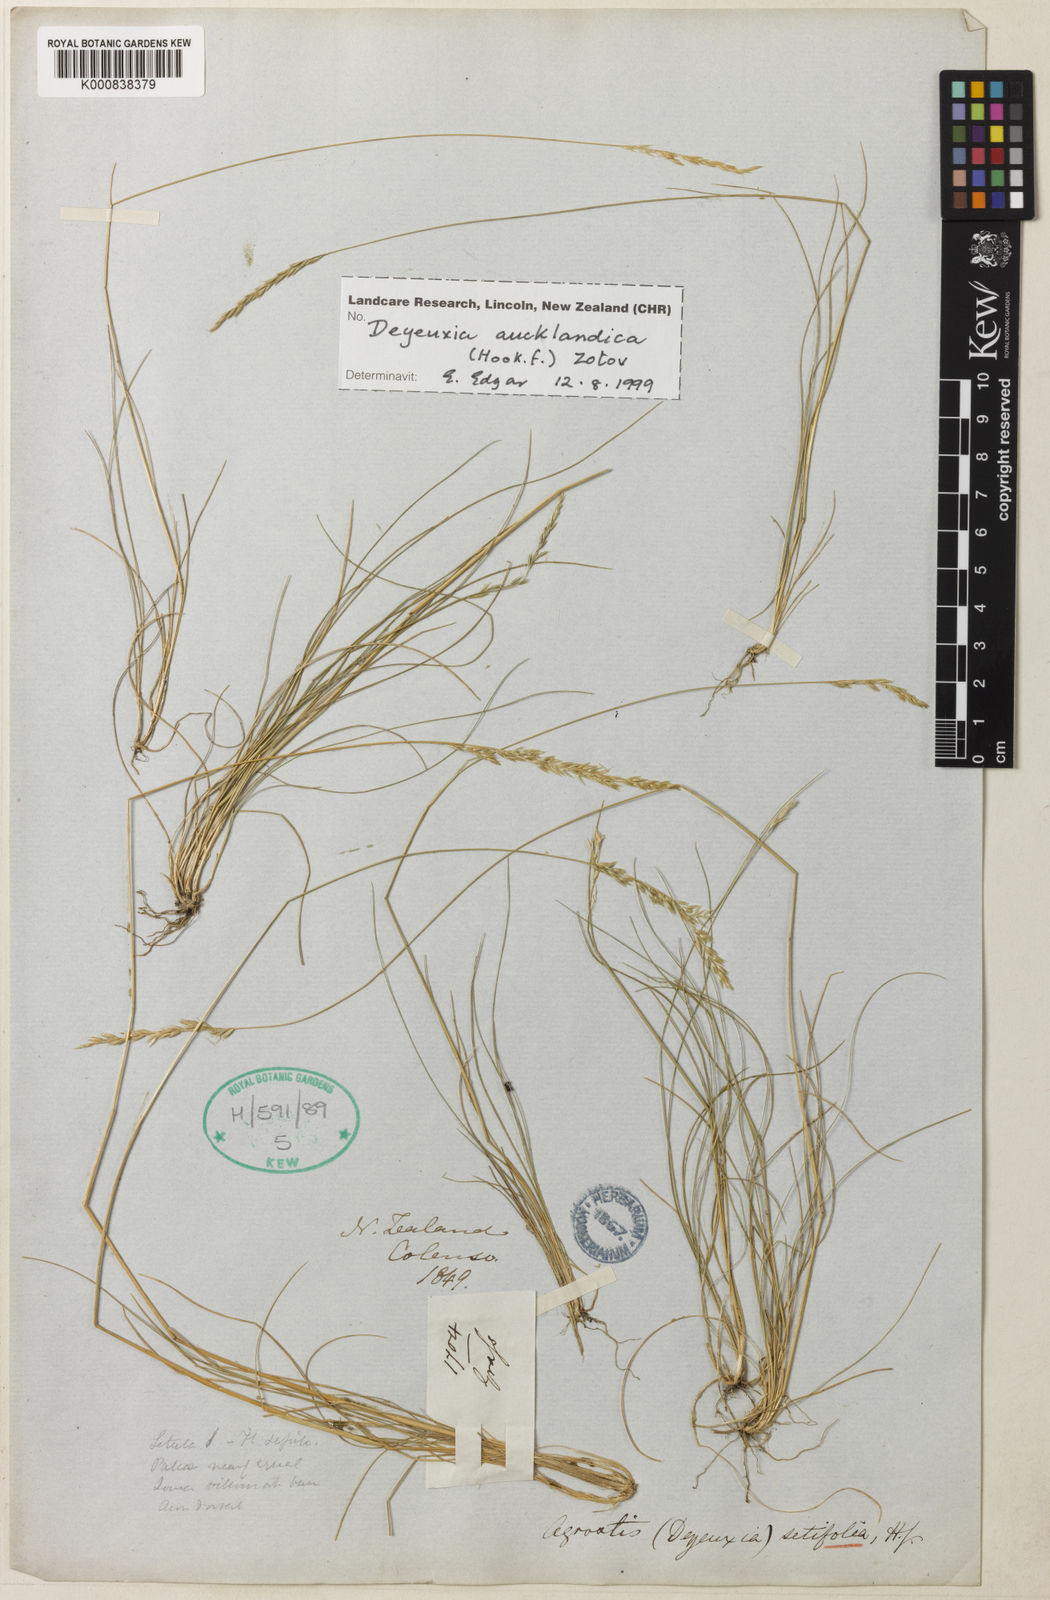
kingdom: Plantae
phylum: Tracheophyta
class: Liliopsida
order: Poales
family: Poaceae
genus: Agrostis
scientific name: Agrostis aucklandica
